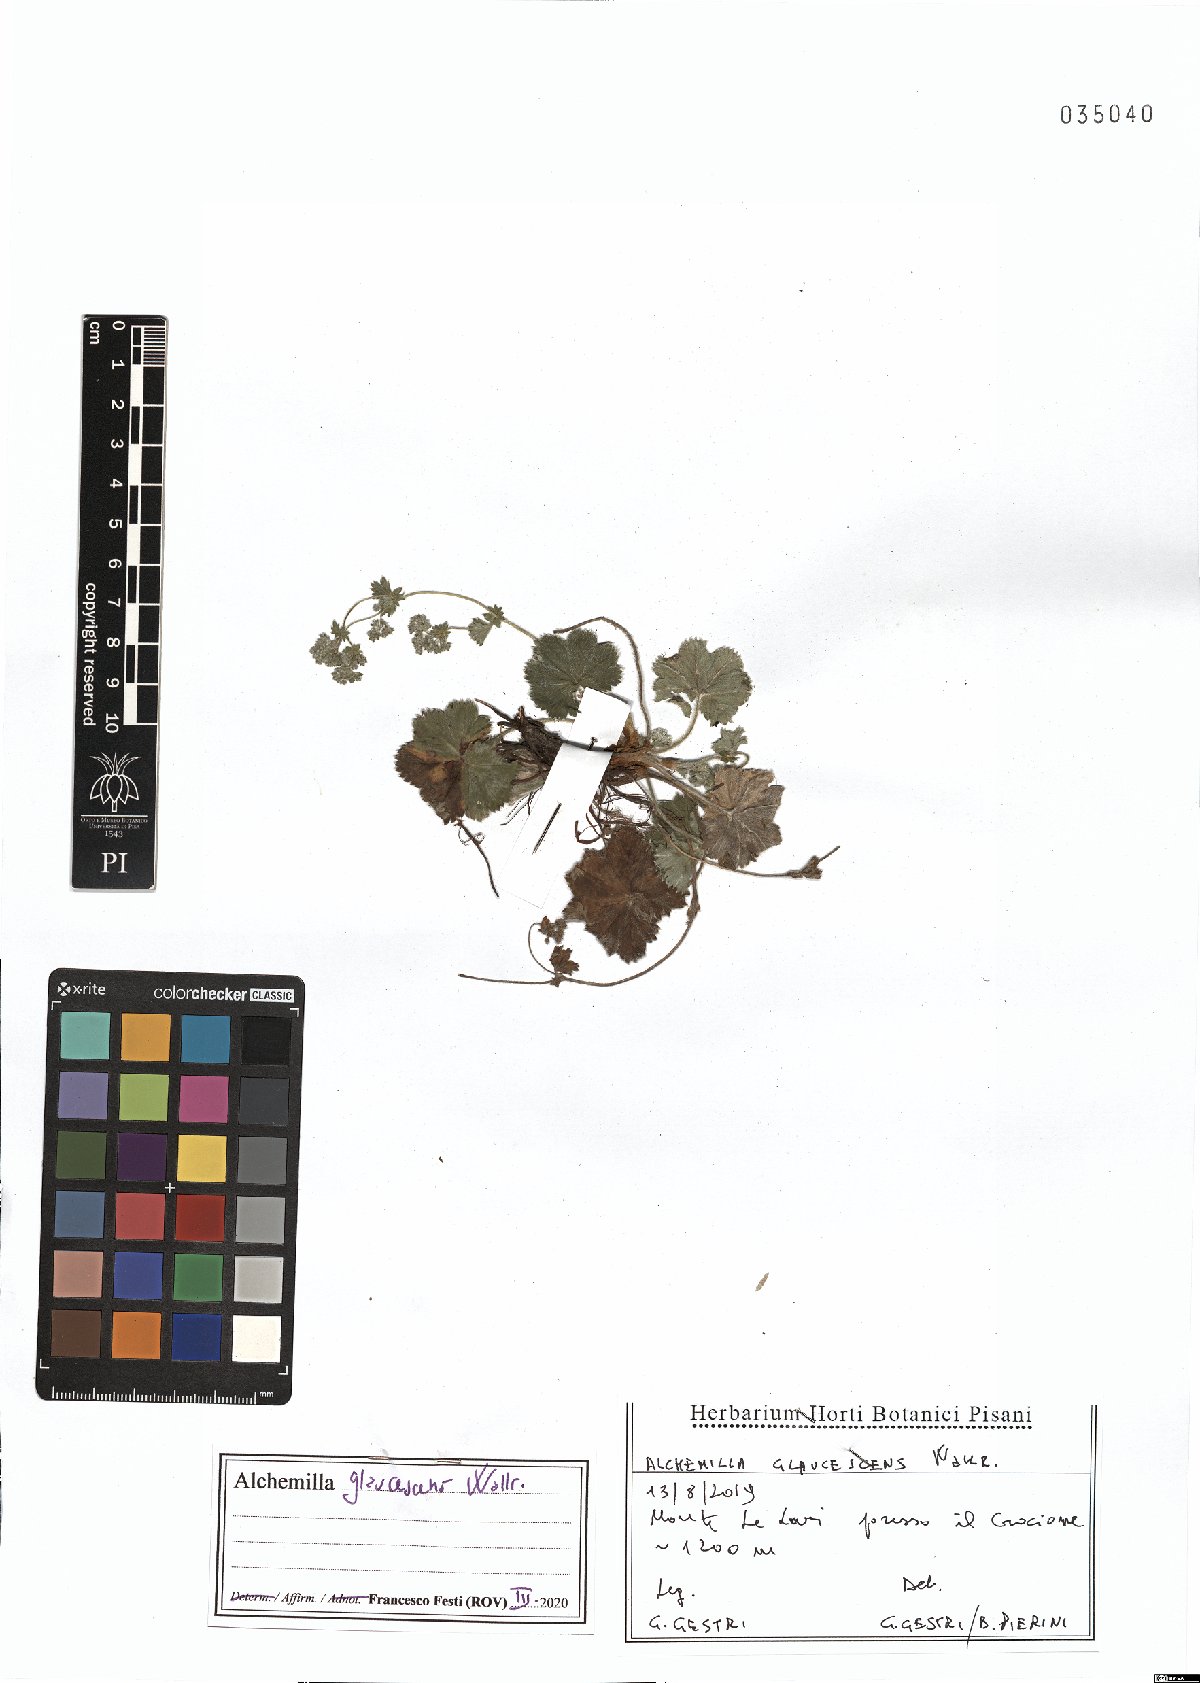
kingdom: Plantae
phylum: Tracheophyta
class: Magnoliopsida
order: Rosales
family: Rosaceae
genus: Alchemilla
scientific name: Alchemilla glaucescens
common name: Silky lady's mantle
